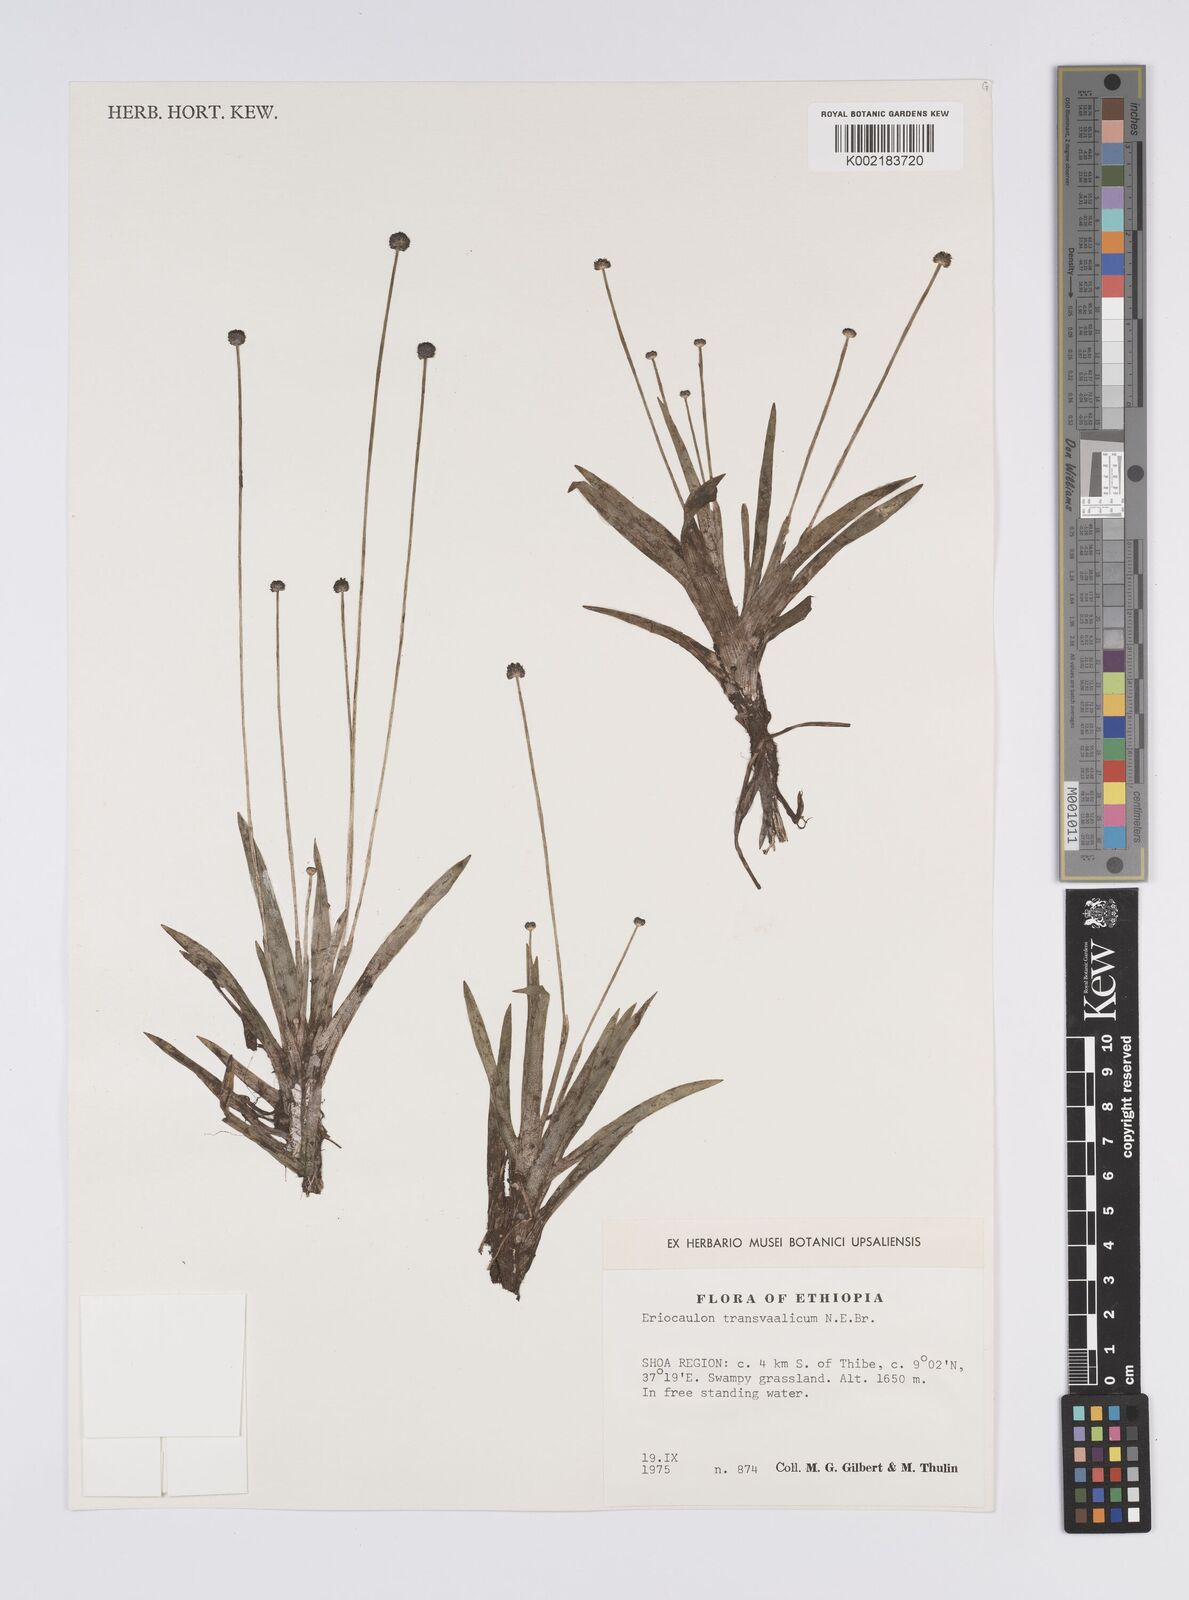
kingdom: Plantae
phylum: Tracheophyta
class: Liliopsida
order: Poales
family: Eriocaulaceae
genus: Eriocaulon
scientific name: Eriocaulon transvaalicum
